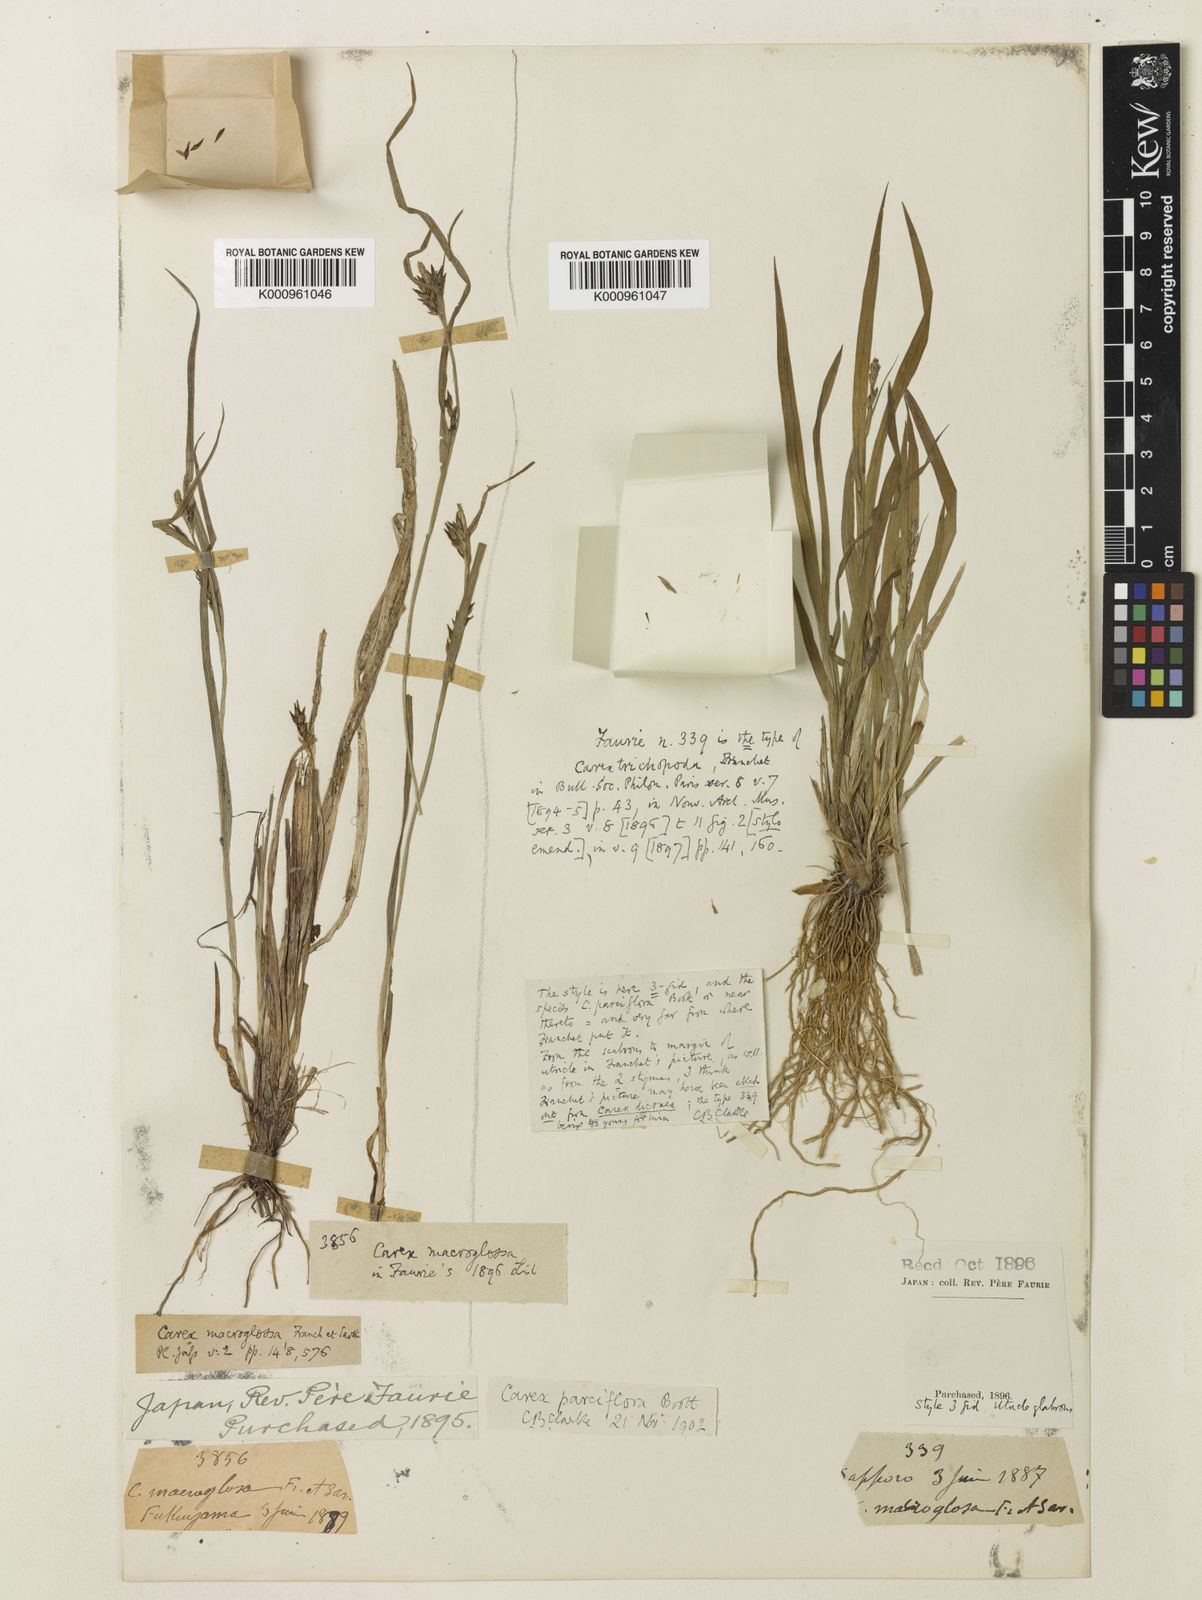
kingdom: Plantae
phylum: Tracheophyta
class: Liliopsida
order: Poales
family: Cyperaceae
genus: Carex
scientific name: Carex jackiana
